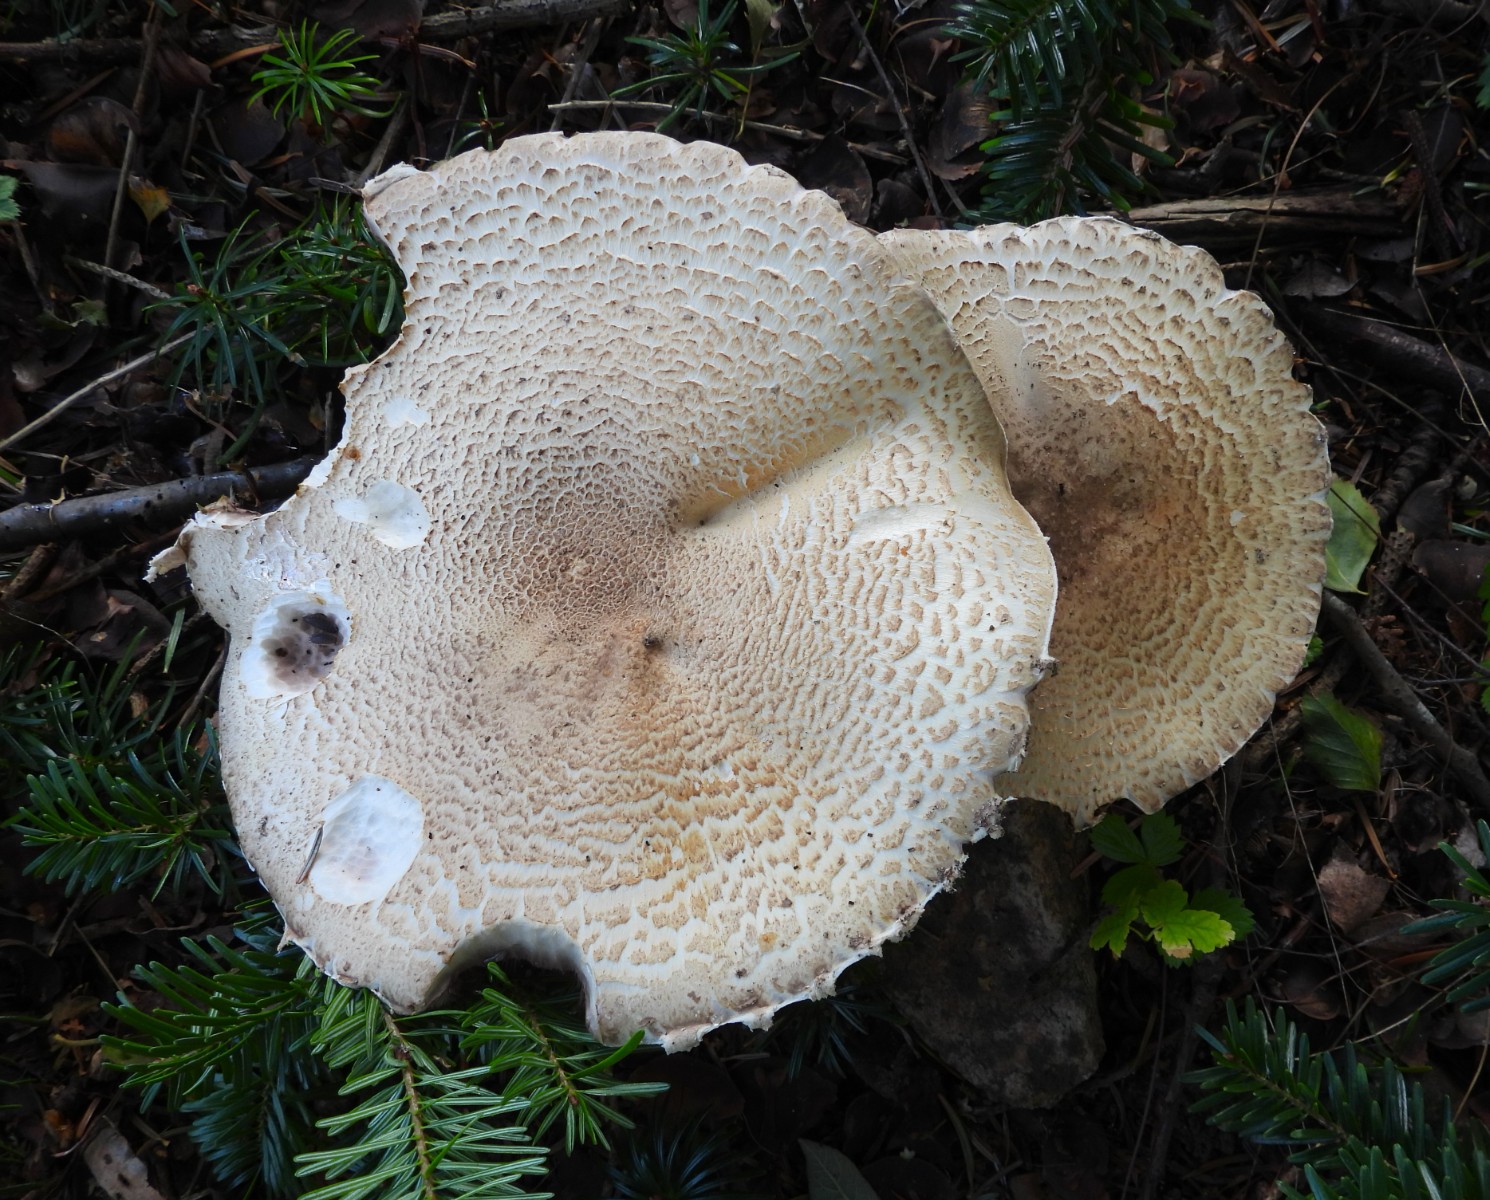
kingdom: Fungi
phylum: Basidiomycota
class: Agaricomycetes
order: Agaricales
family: Agaricaceae
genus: Agaricus
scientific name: Agaricus augustus
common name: prægtig champignon
